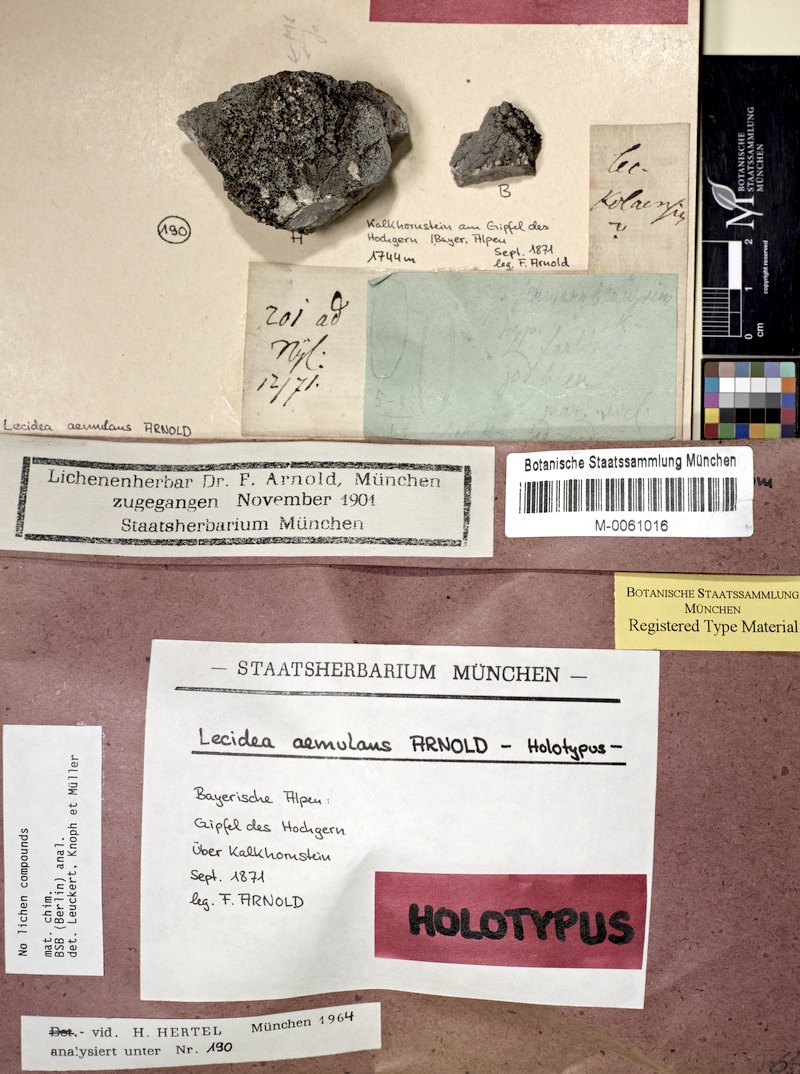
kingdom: Fungi
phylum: Ascomycota
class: Lecanoromycetes
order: Lecanorales
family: Lecanoraceae
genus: Lecidella
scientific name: Lecidella aemulans
